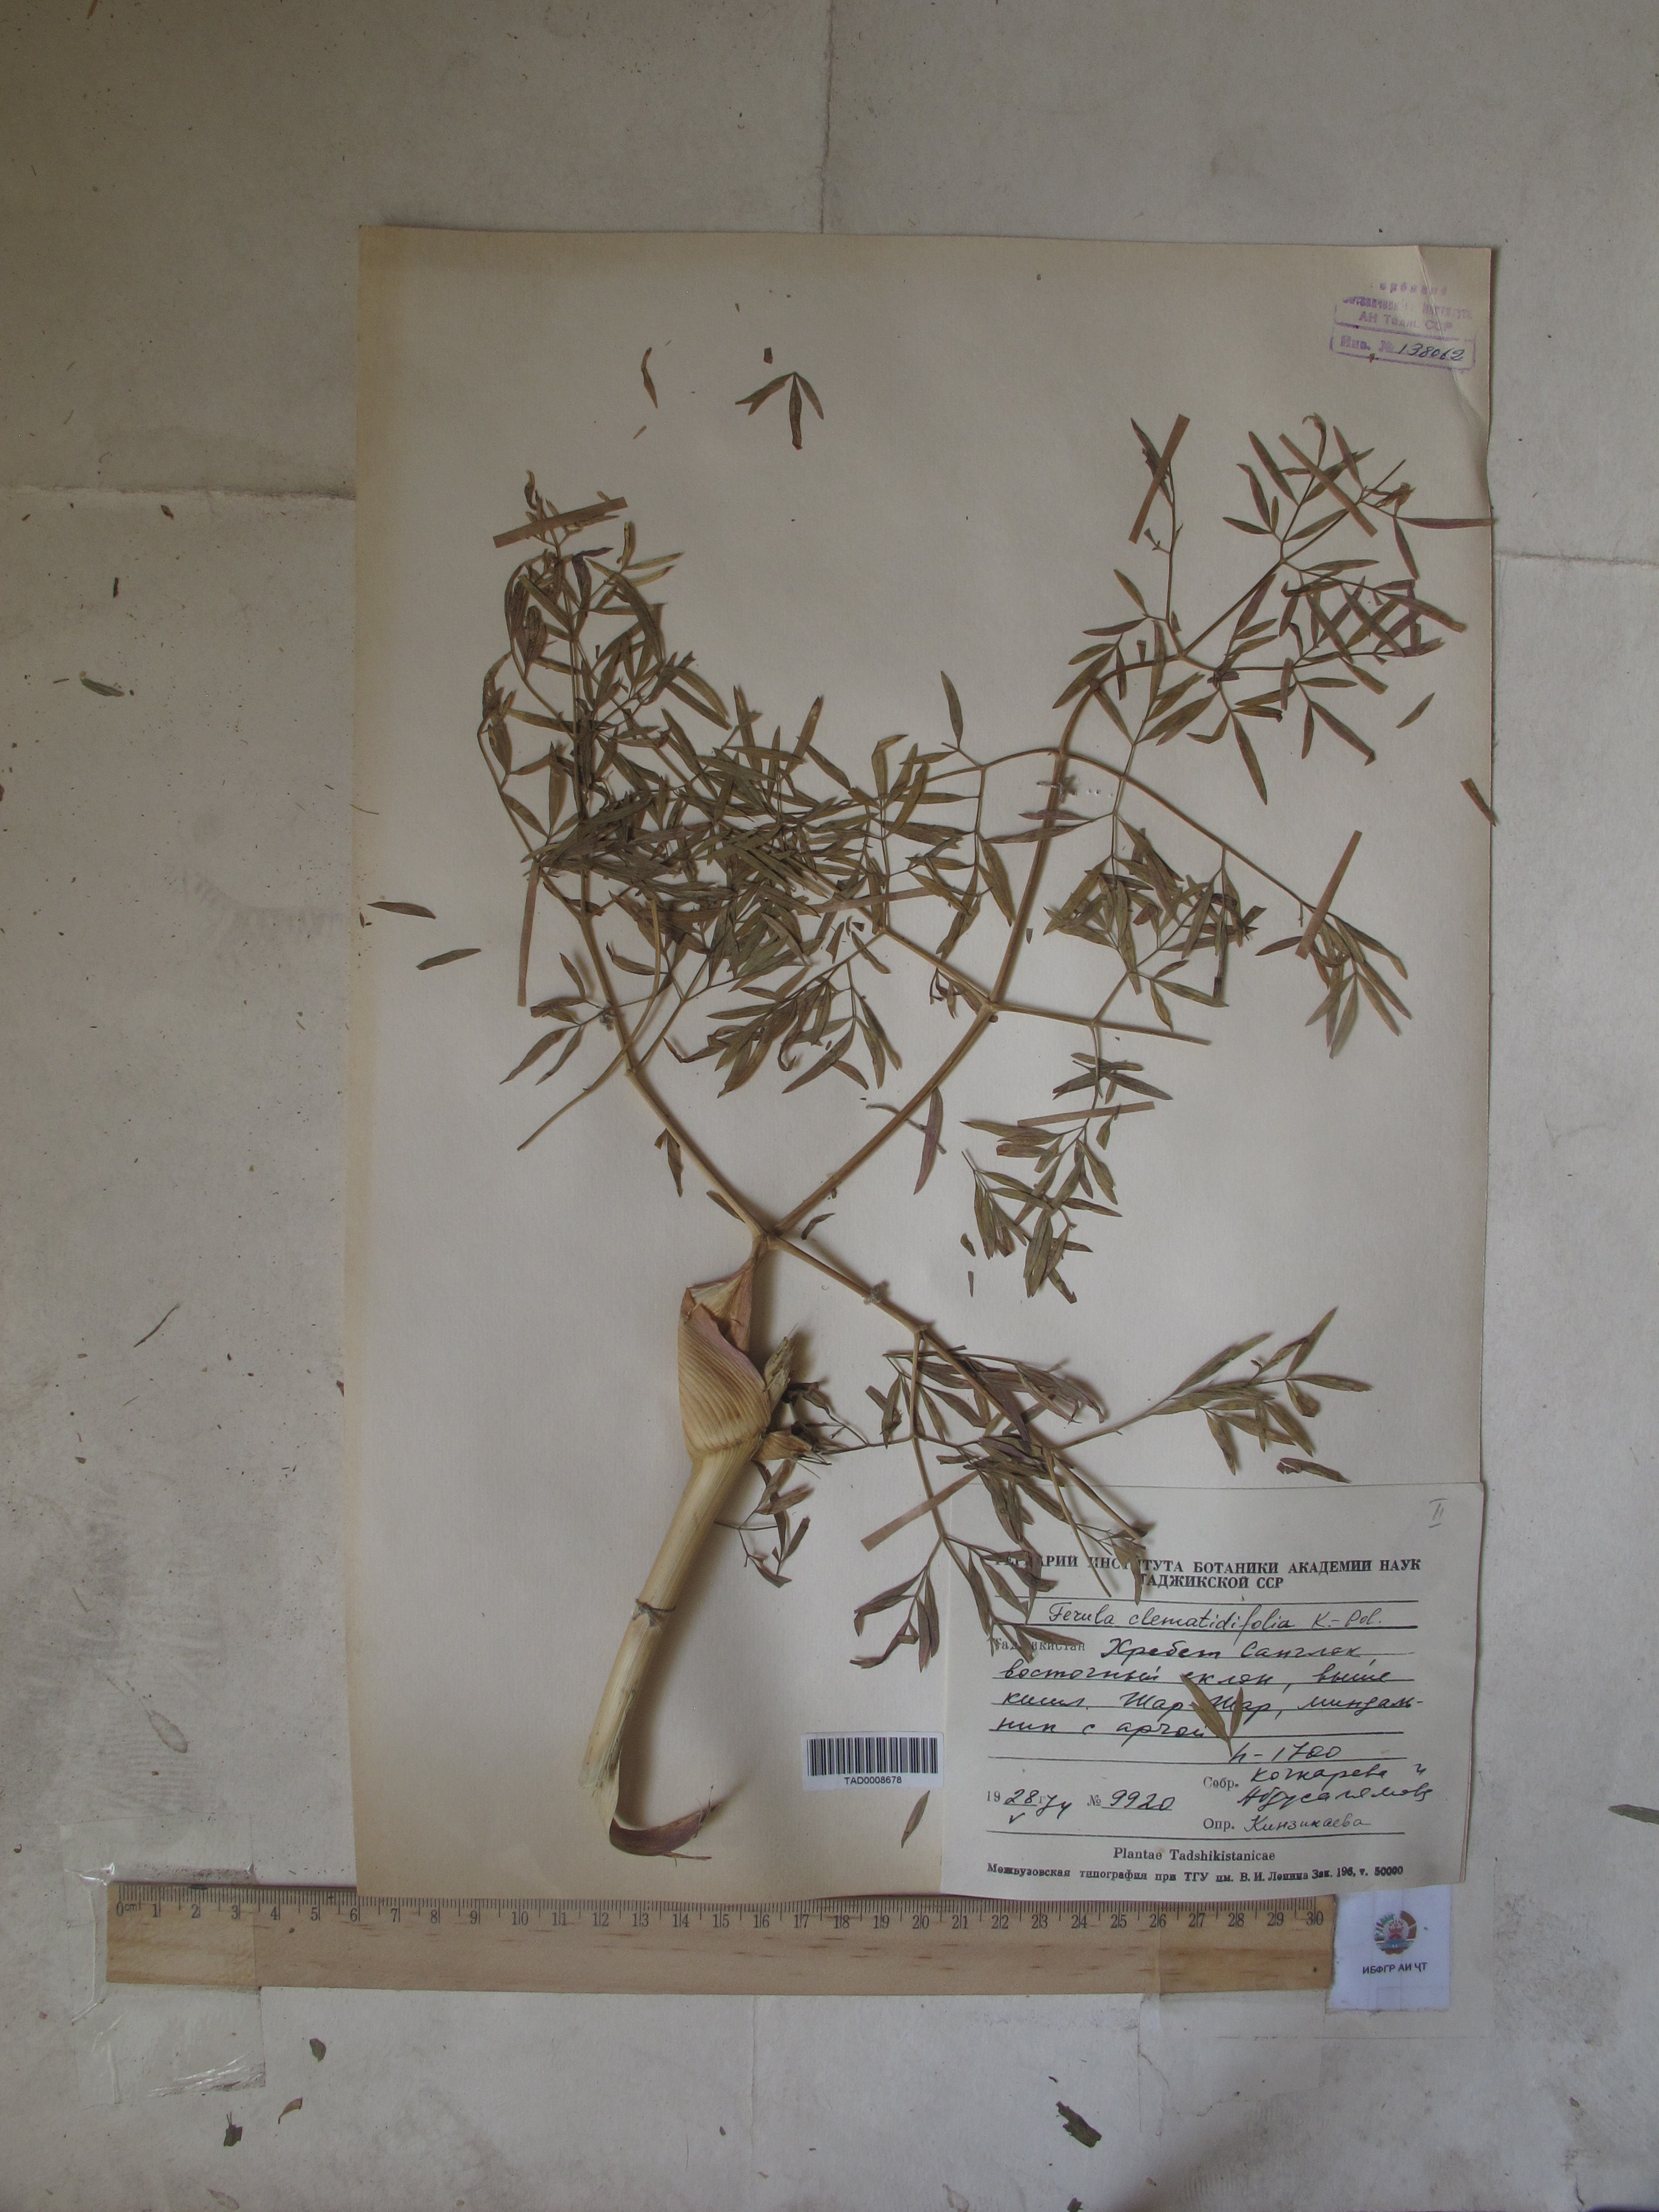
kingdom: Plantae
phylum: Tracheophyta
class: Magnoliopsida
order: Apiales
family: Apiaceae
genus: Ferula
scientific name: Ferula clematidifolia
